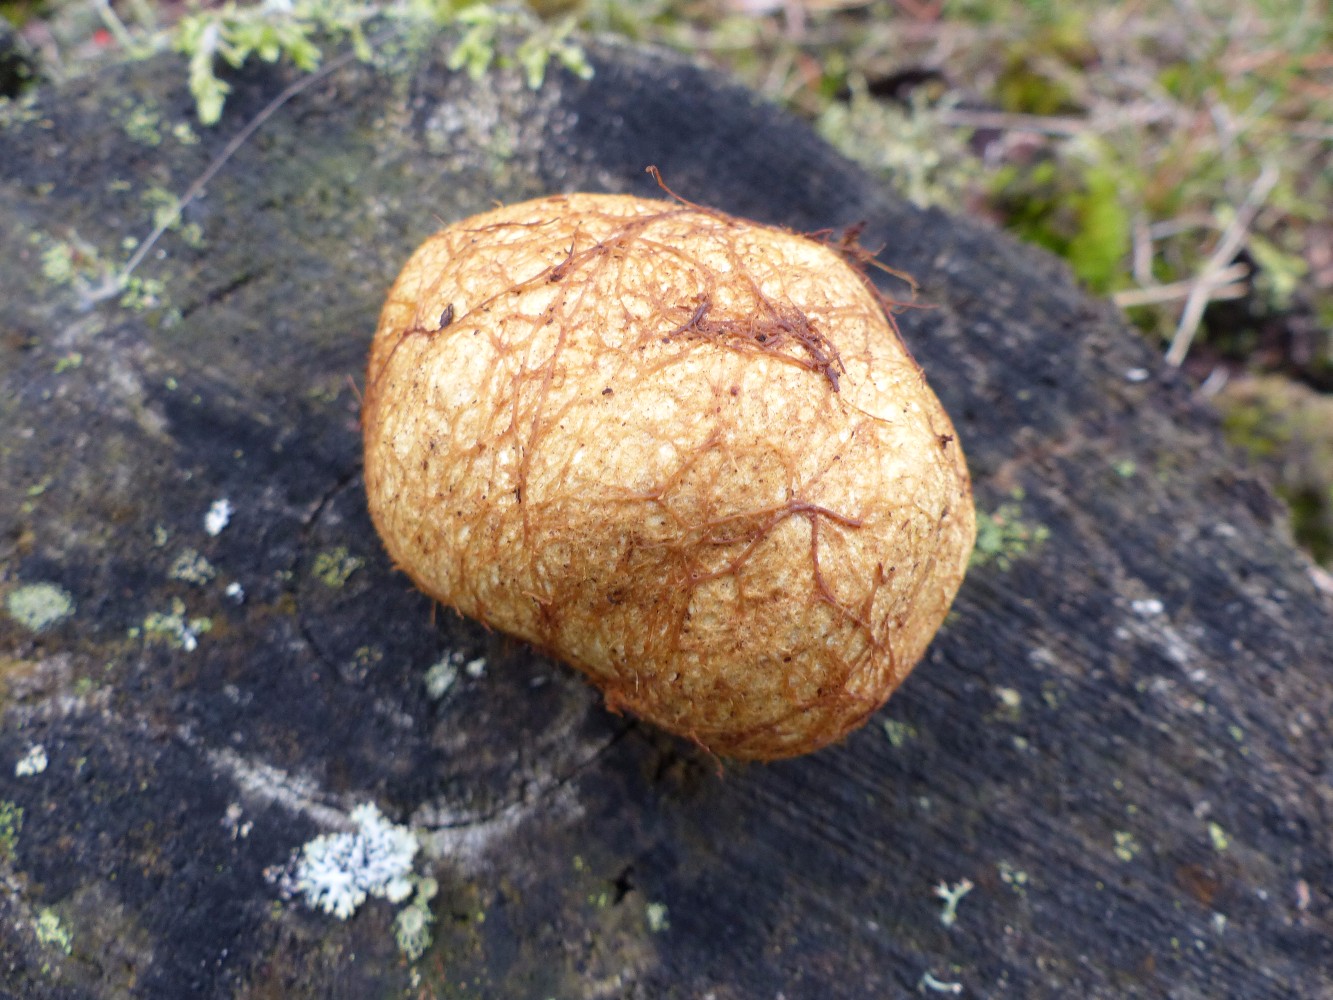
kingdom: Fungi
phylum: Basidiomycota
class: Agaricomycetes
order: Boletales
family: Rhizopogonaceae
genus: Rhizopogon
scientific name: Rhizopogon obtextus
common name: gul skægtrøffel
